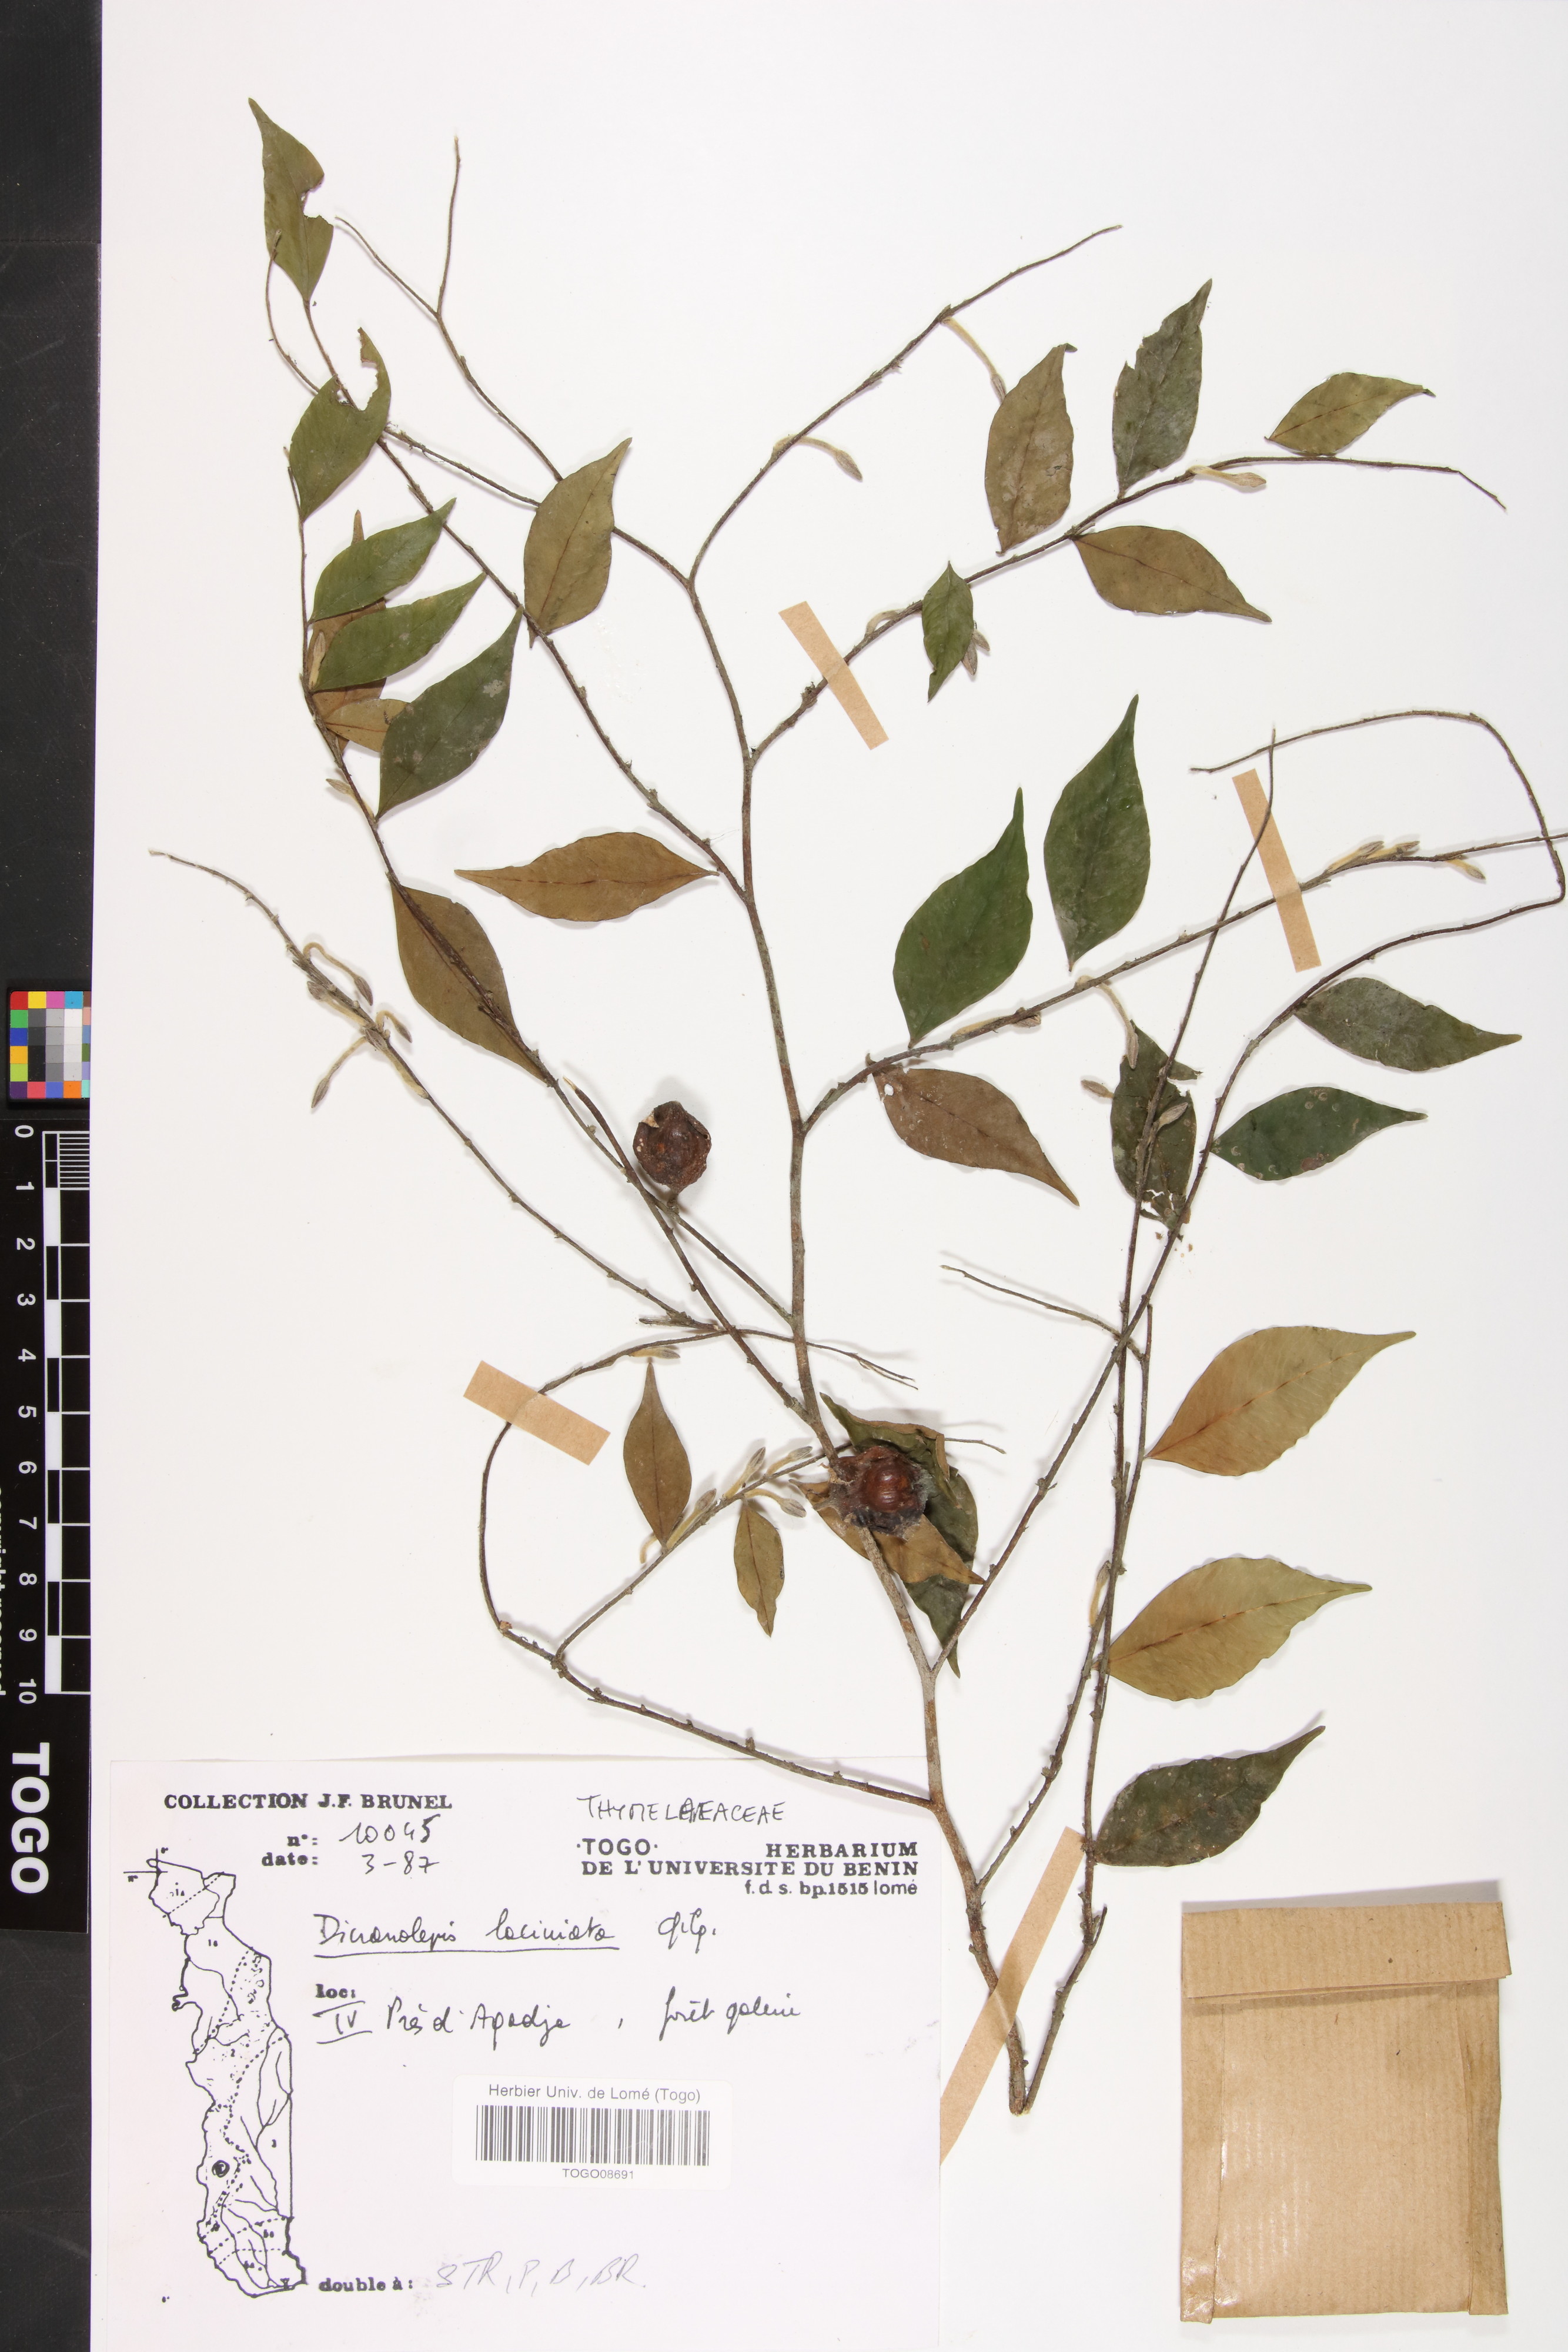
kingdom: Plantae
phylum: Tracheophyta
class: Magnoliopsida
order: Malvales
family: Thymelaeaceae
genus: Dicranolepis
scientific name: Dicranolepis laciniata
